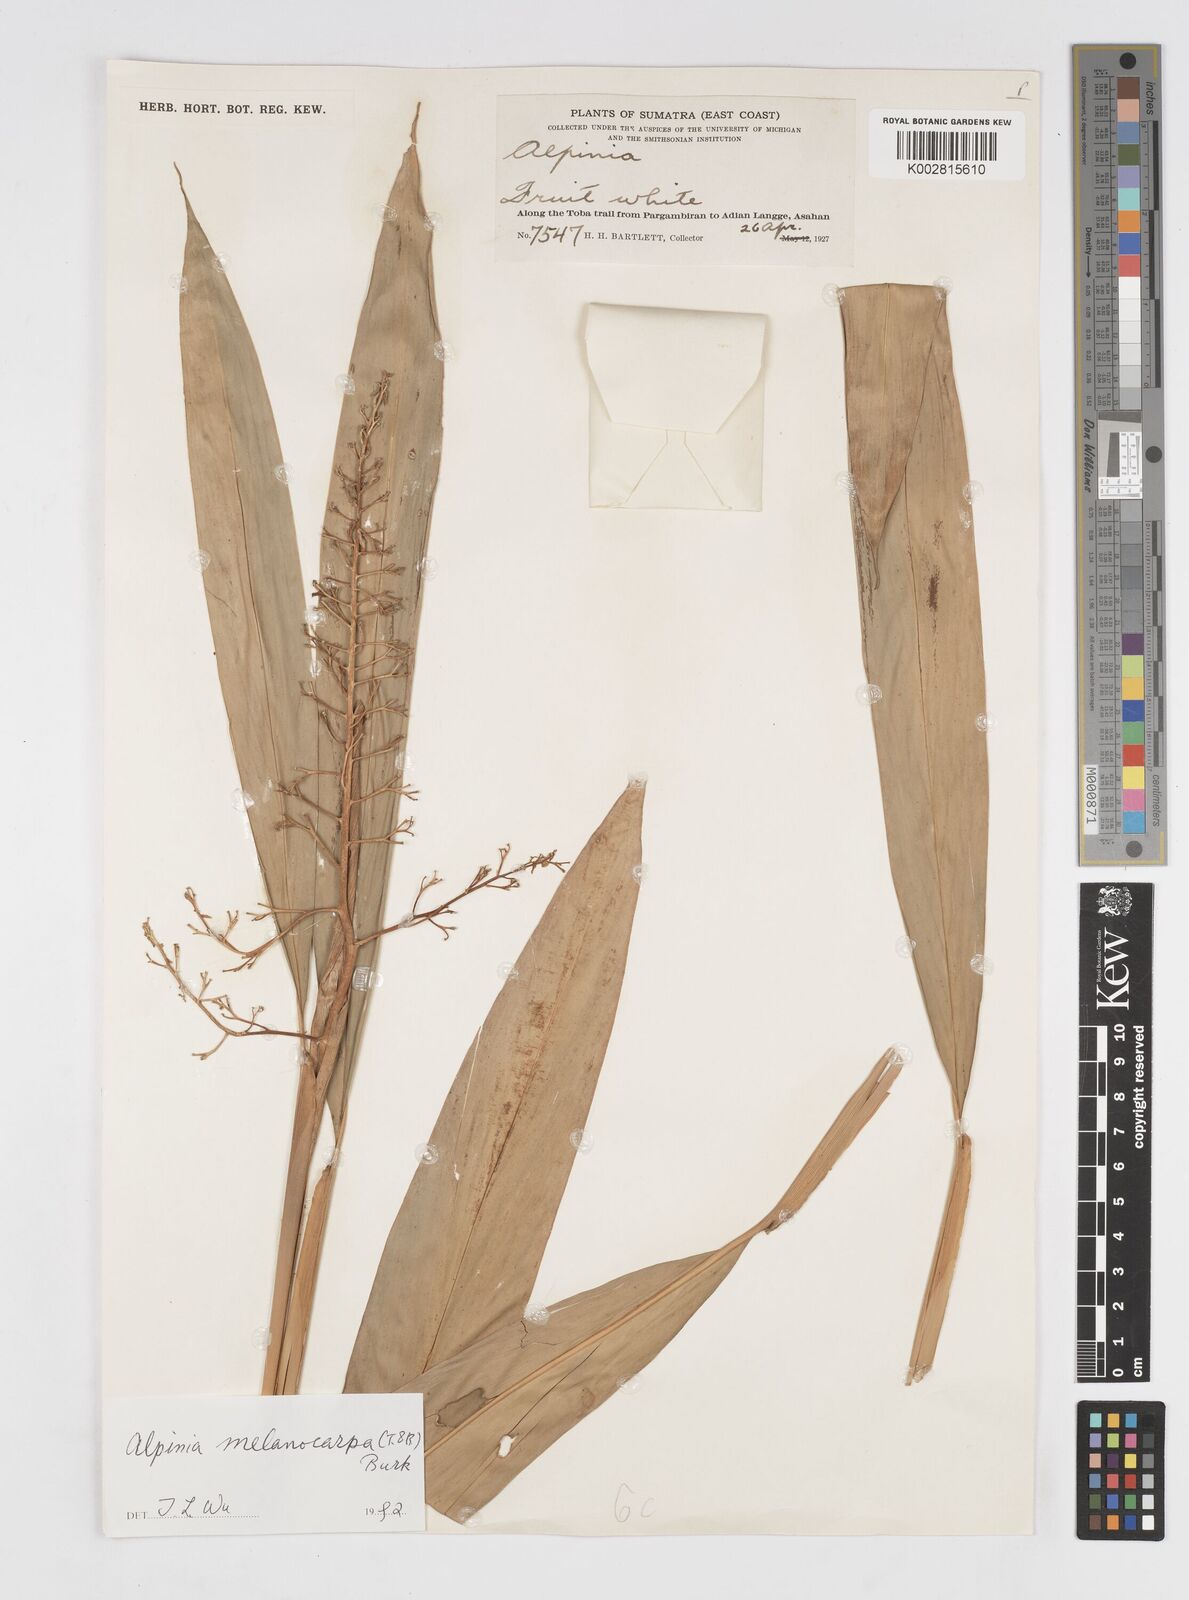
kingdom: Plantae
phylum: Tracheophyta
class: Liliopsida
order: Zingiberales
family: Zingiberaceae
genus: Alpinia
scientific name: Alpinia scabra
